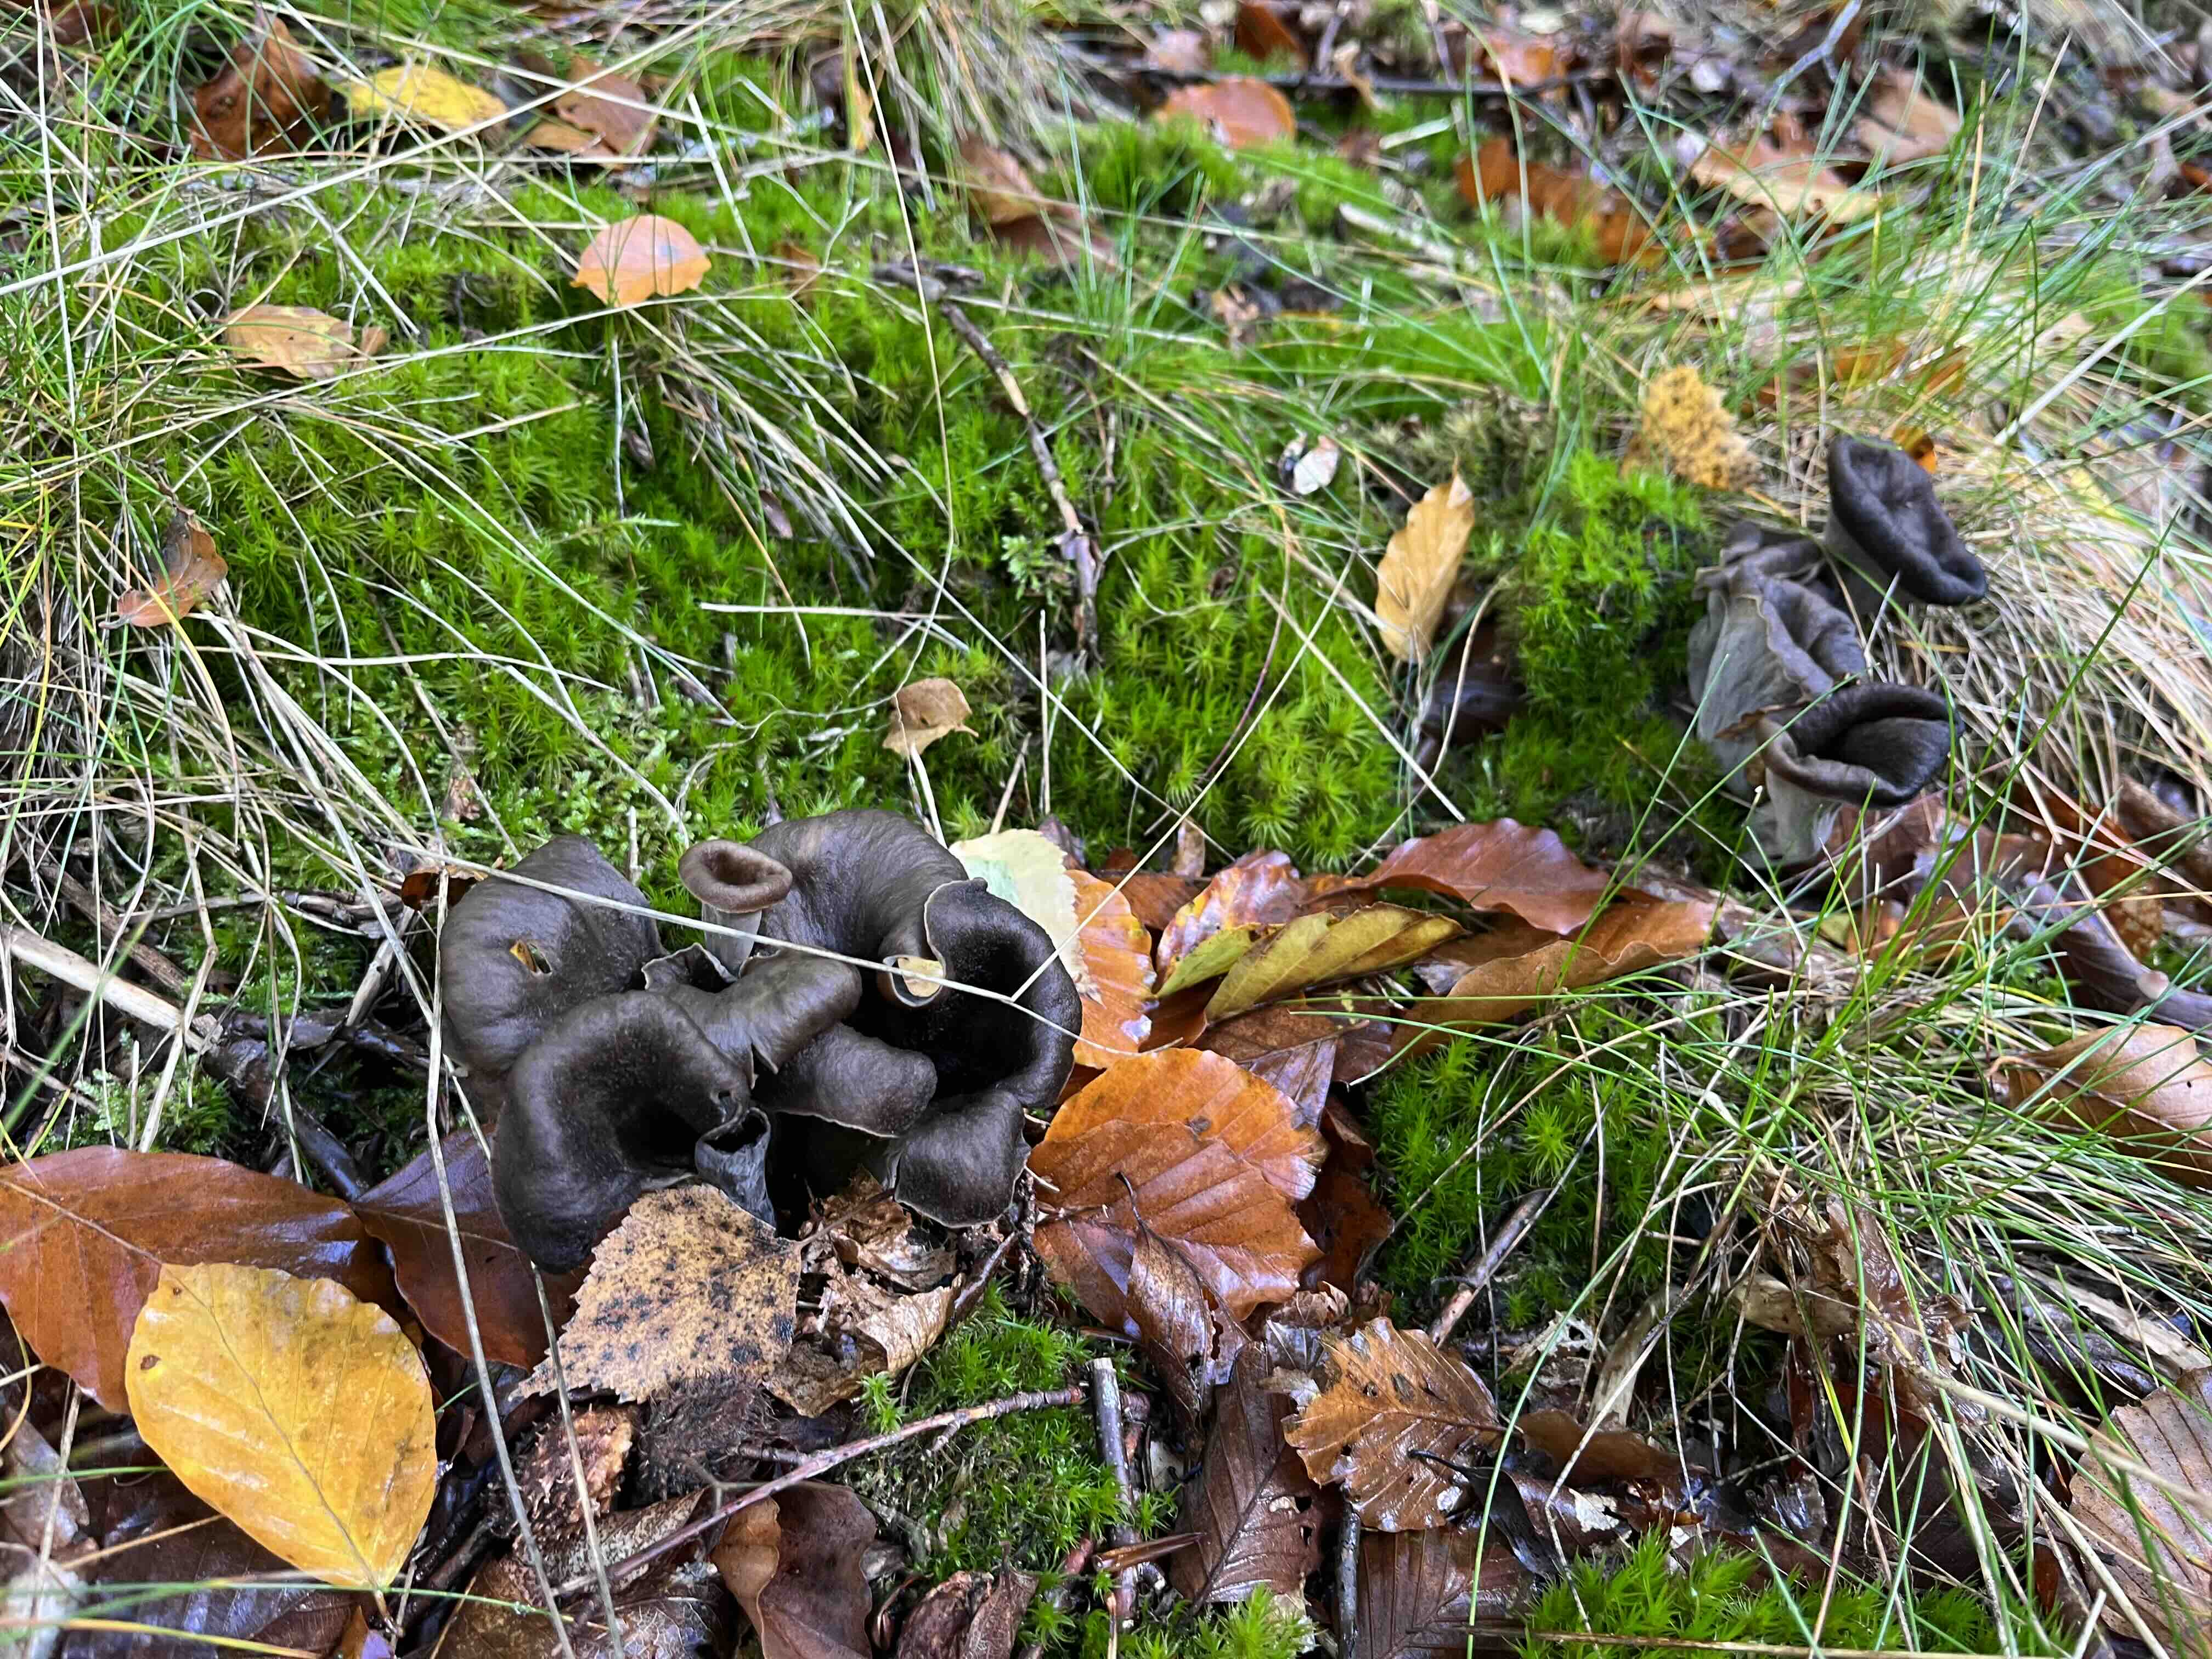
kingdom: Fungi
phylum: Basidiomycota
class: Agaricomycetes
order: Cantharellales
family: Hydnaceae
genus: Craterellus
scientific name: Craterellus cornucopioides
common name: trompetsvamp
